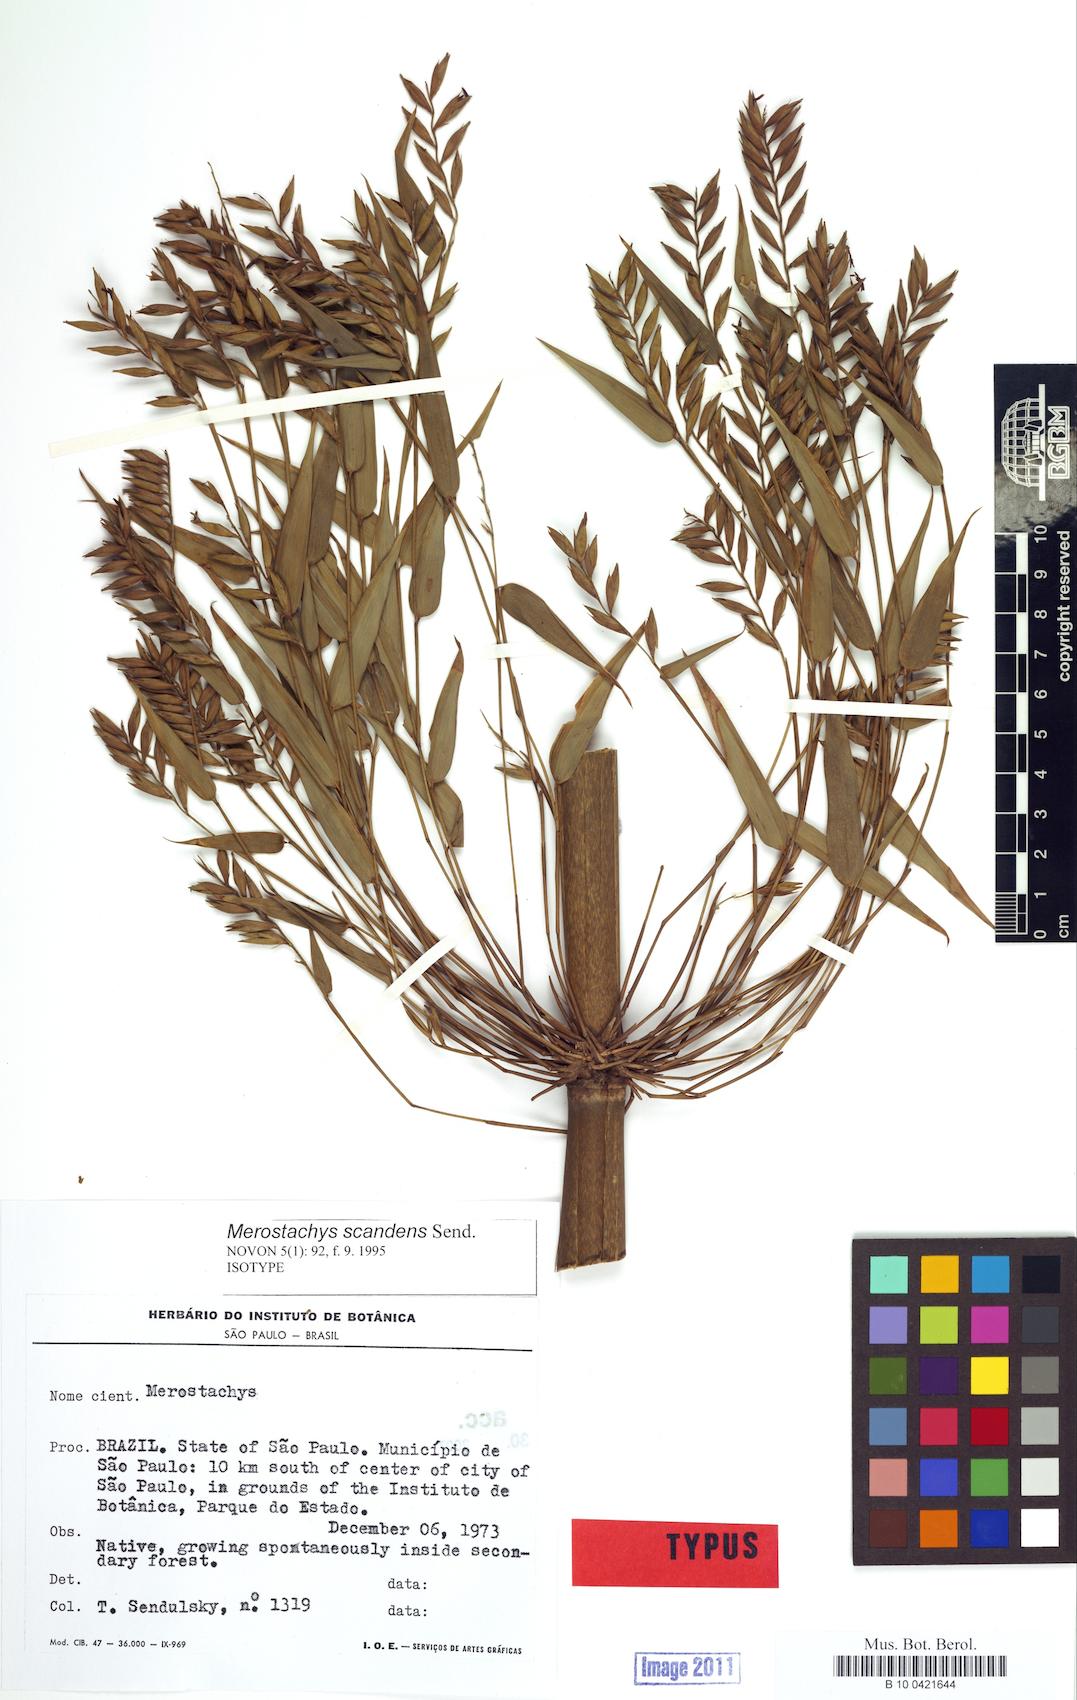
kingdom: Plantae
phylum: Tracheophyta
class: Liliopsida
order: Poales
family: Poaceae
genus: Merostachys
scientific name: Merostachys scandens
